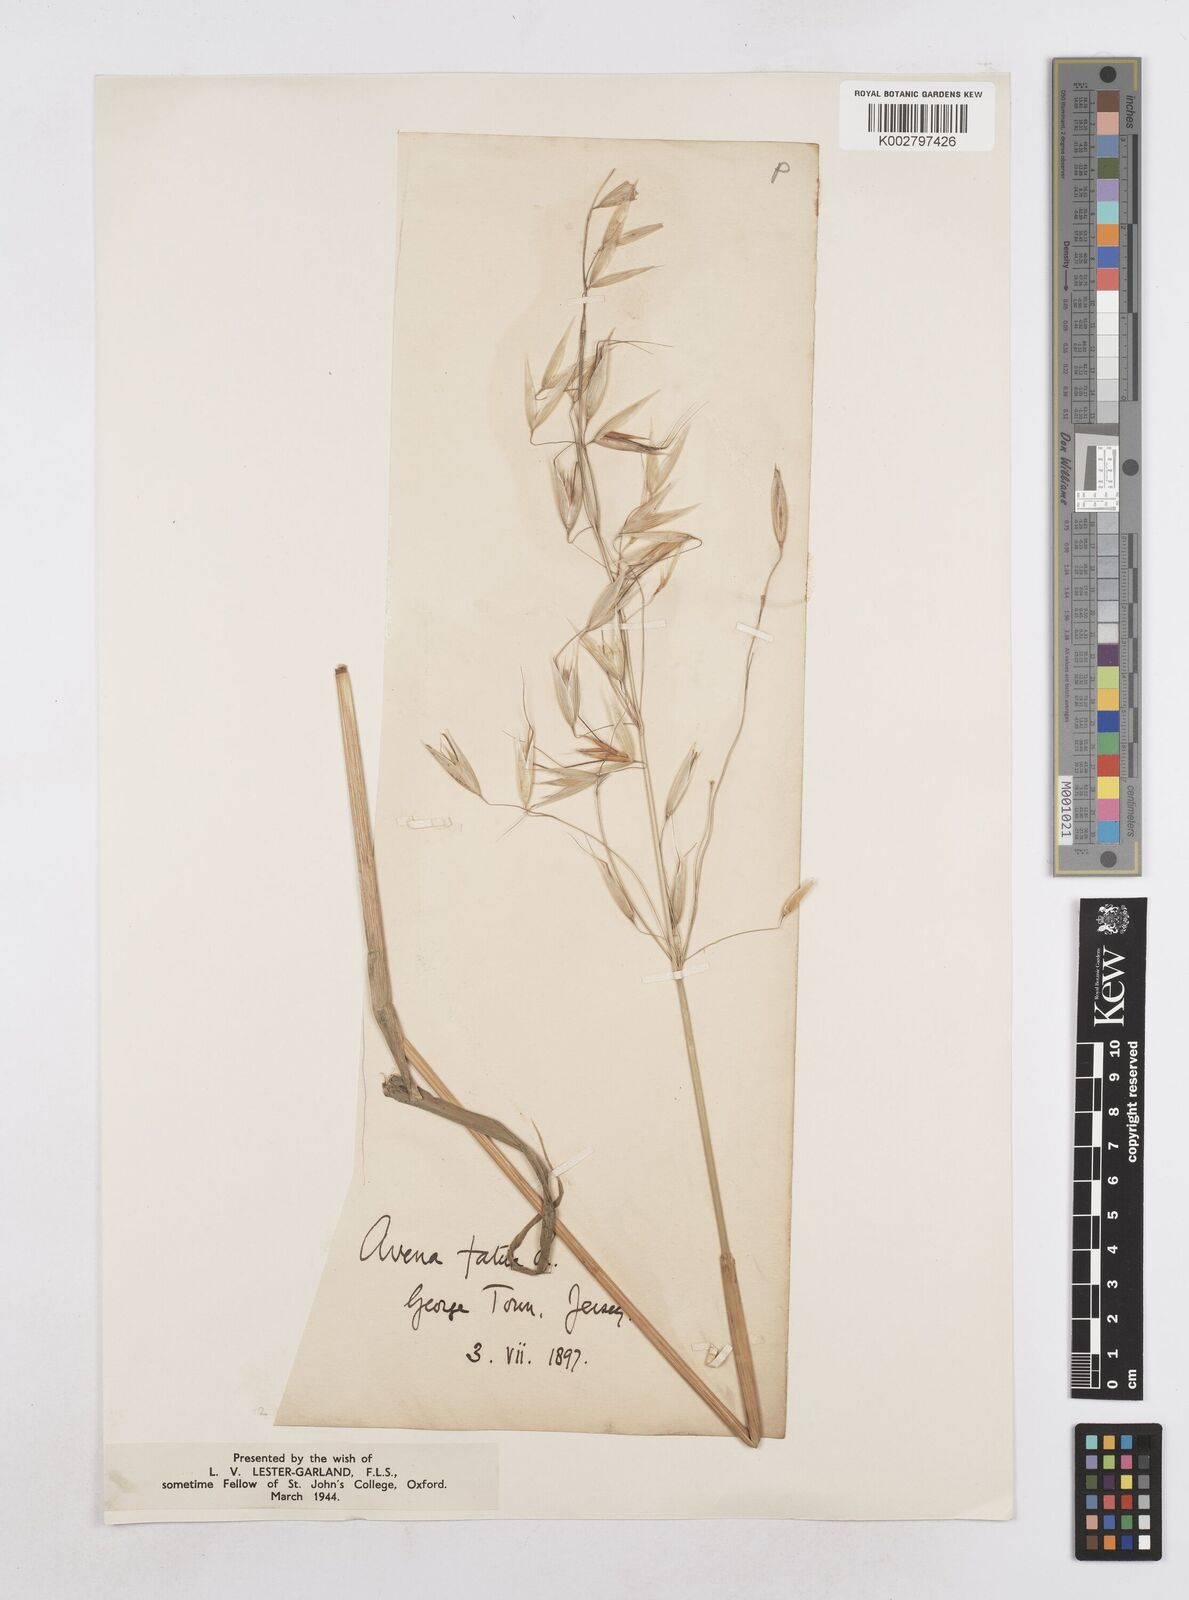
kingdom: Plantae
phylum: Tracheophyta
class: Liliopsida
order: Poales
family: Poaceae
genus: Avena
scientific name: Avena fatua
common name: Wild oat
